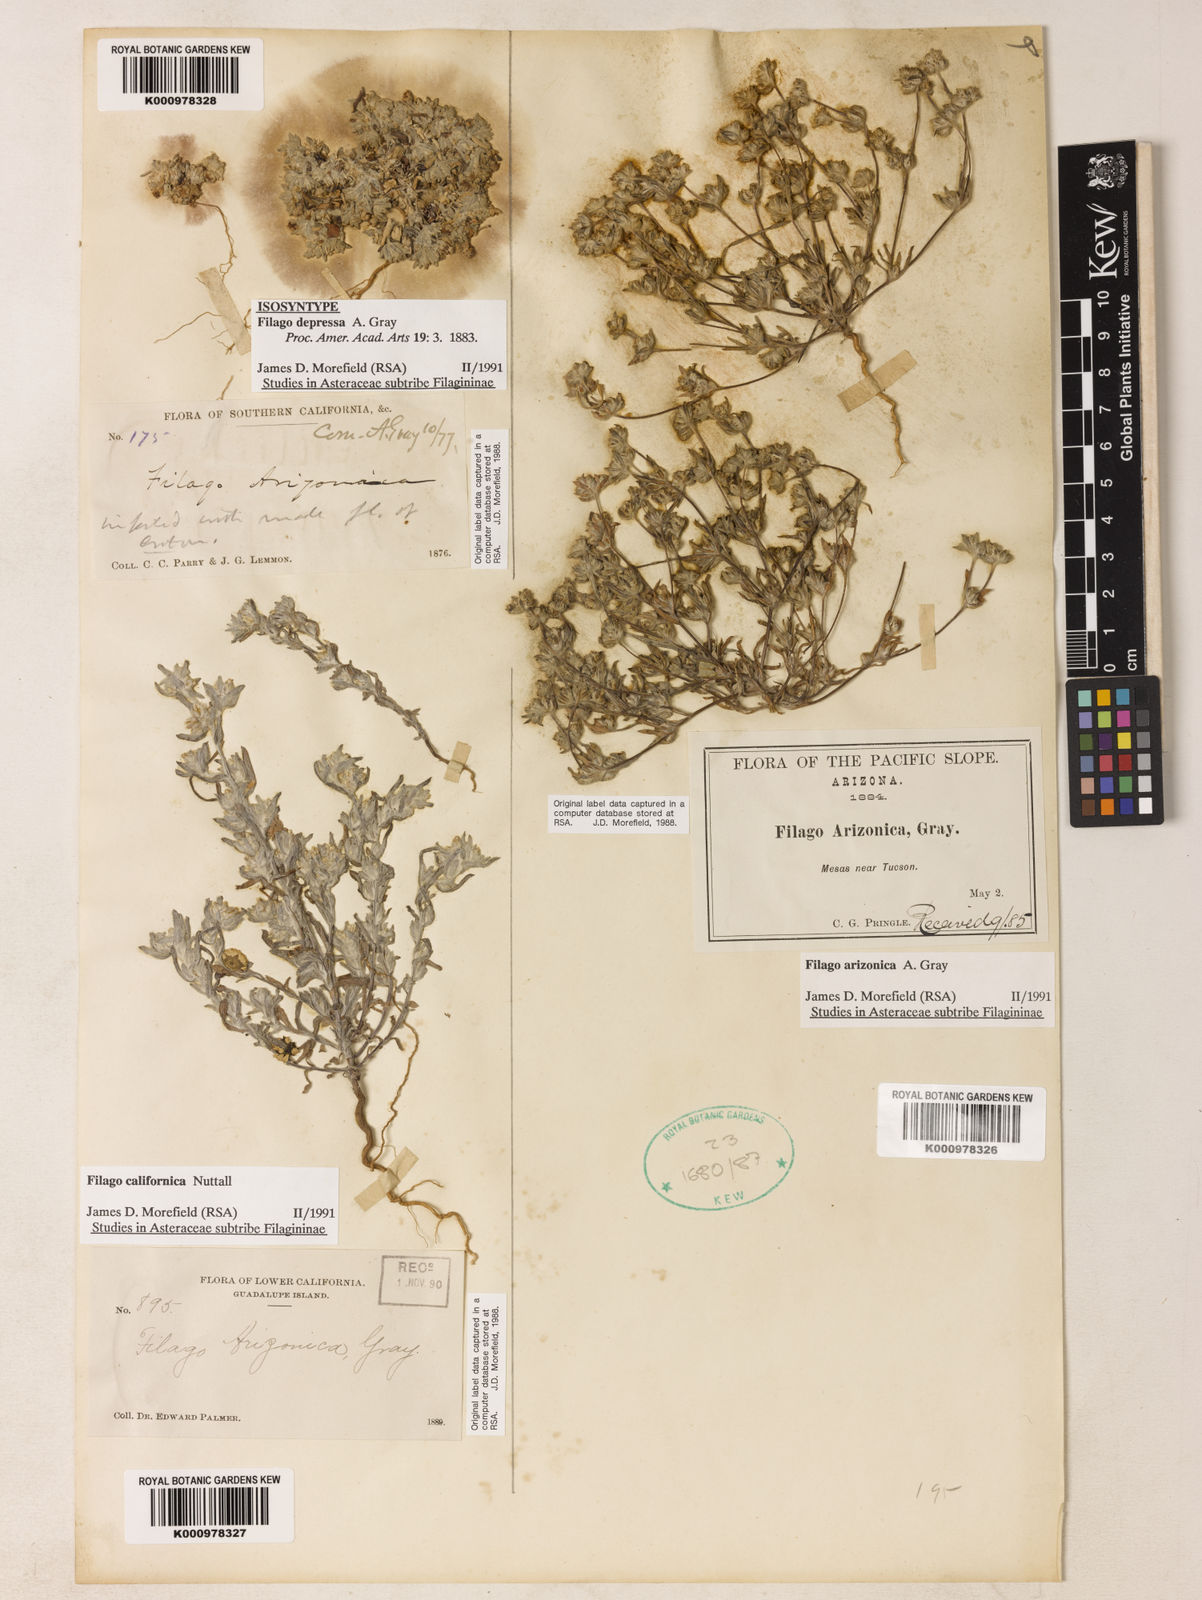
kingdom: Plantae
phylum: Tracheophyta
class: Magnoliopsida
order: Asterales
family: Asteraceae
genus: Logfia
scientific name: Logfia depressa
